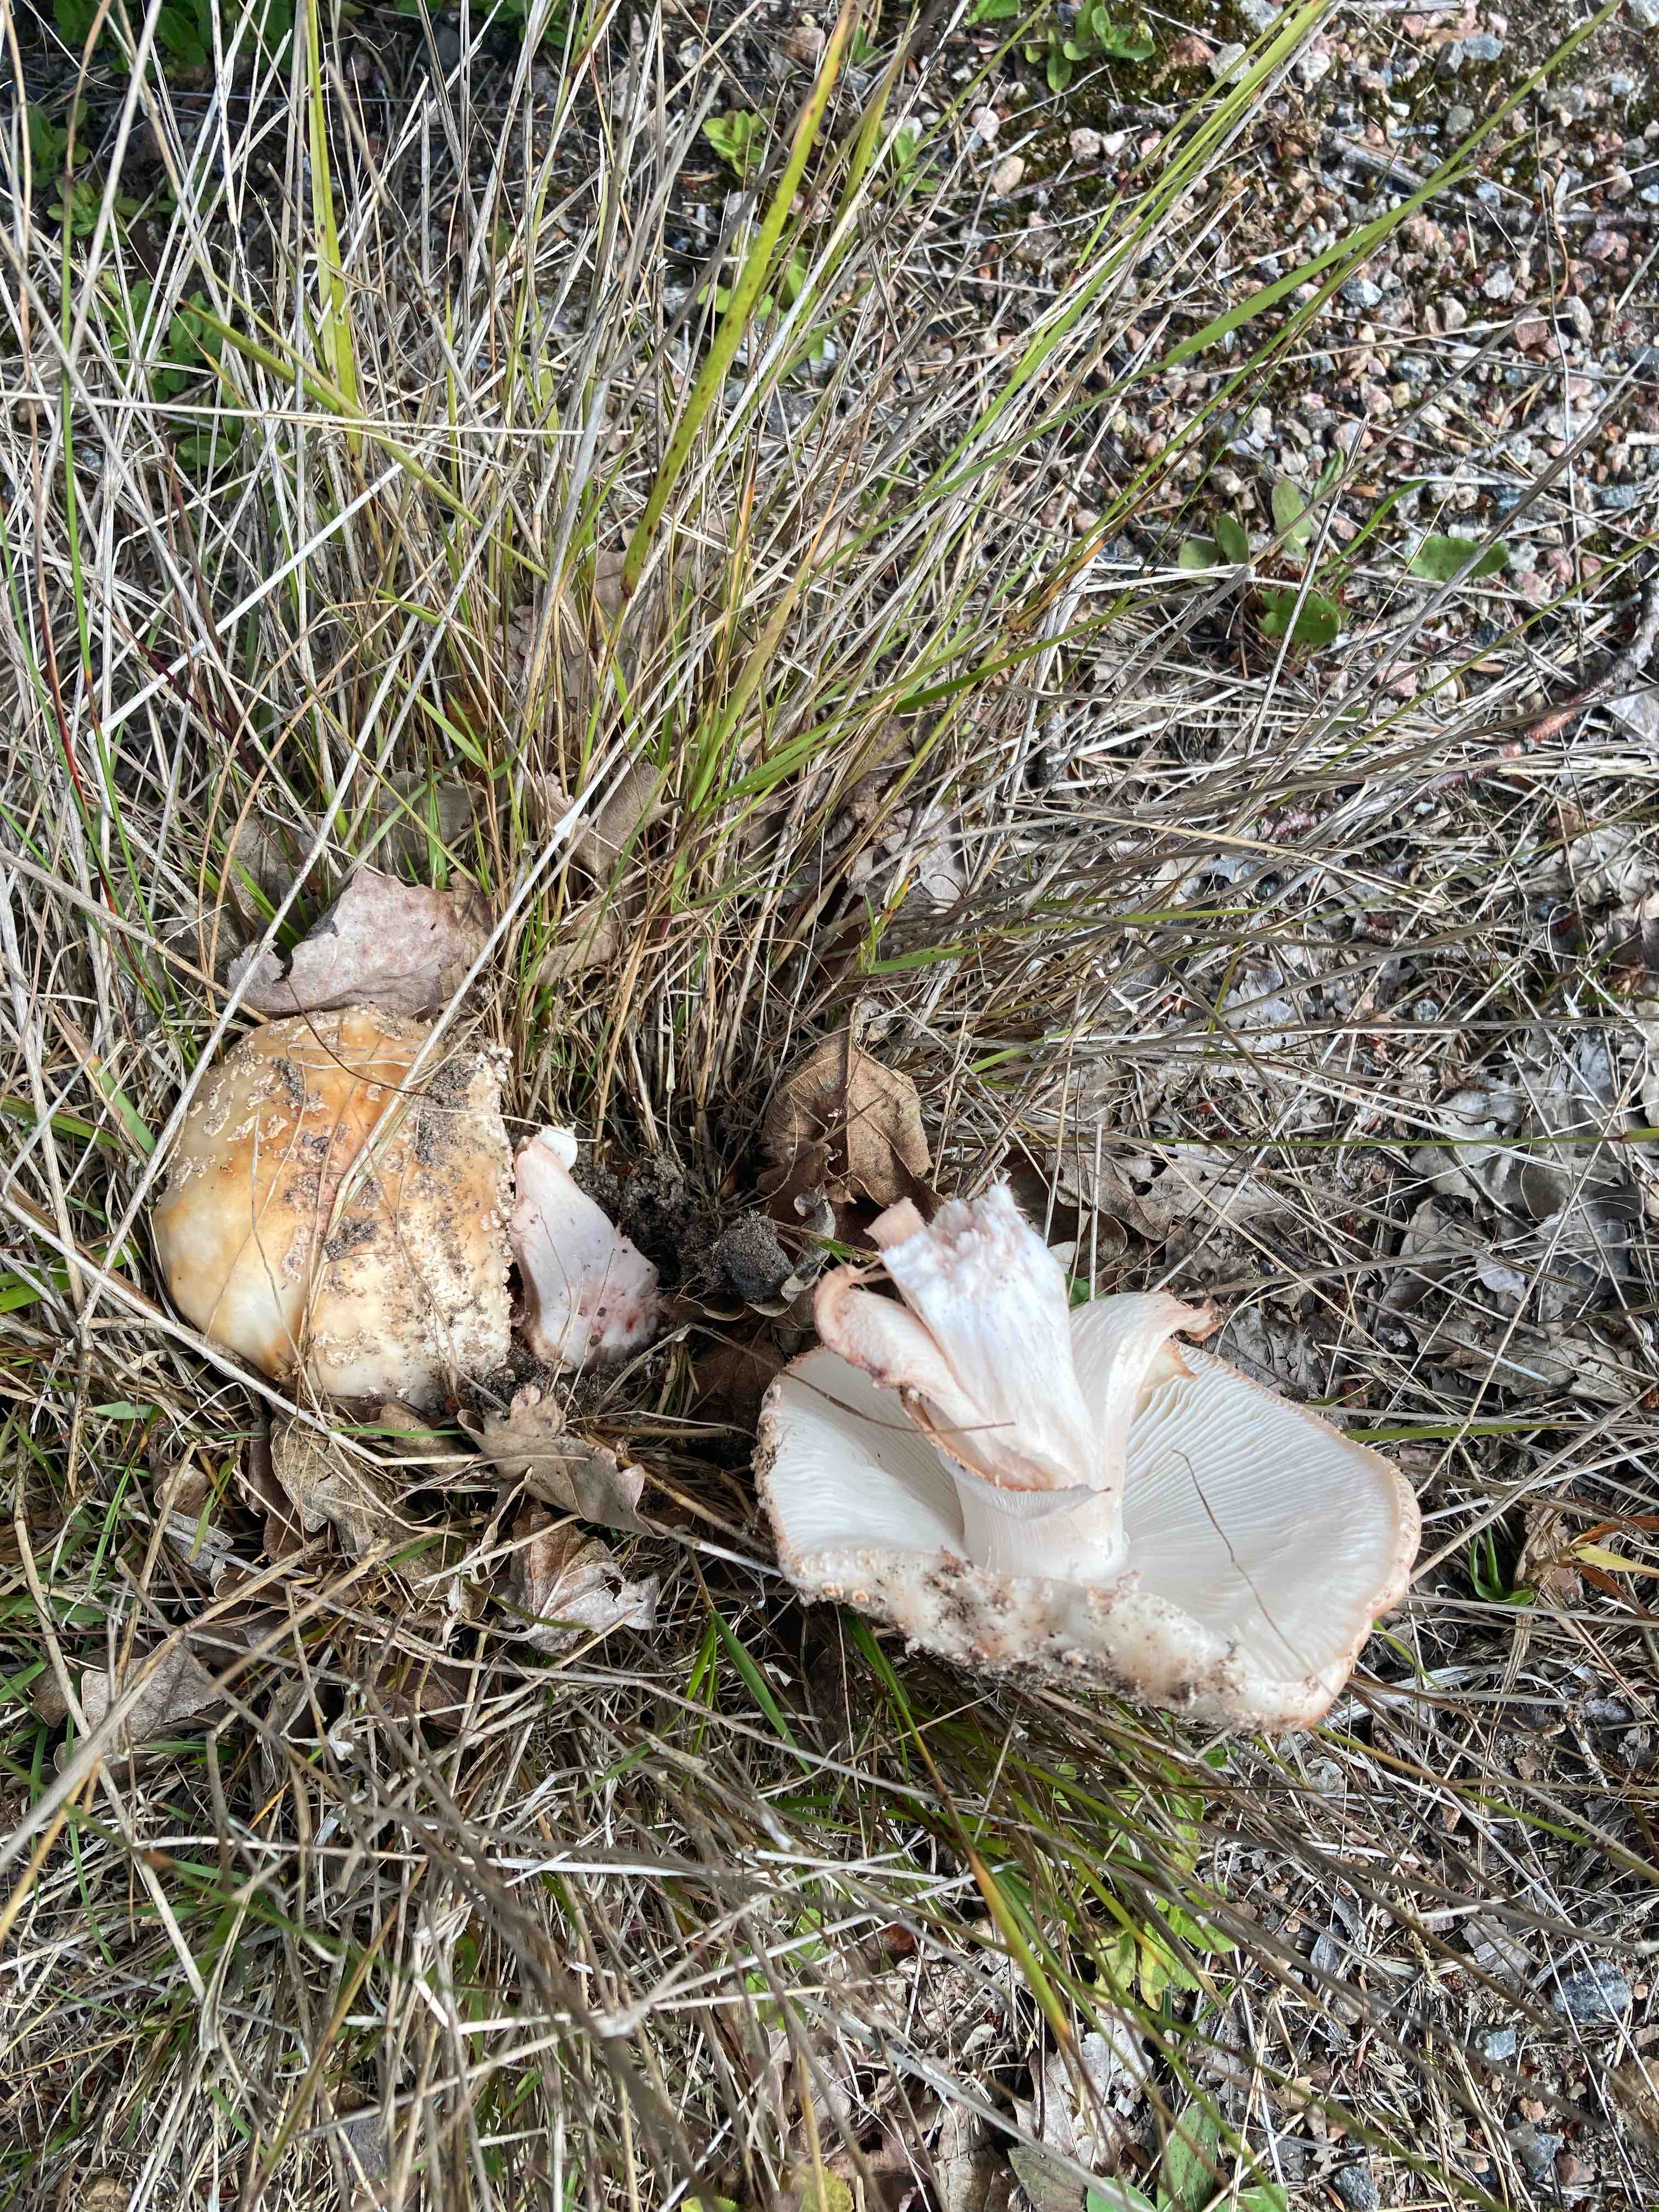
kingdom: Fungi
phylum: Basidiomycota
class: Agaricomycetes
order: Agaricales
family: Amanitaceae
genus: Amanita
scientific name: Amanita rubescens
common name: rødmende fluesvamp
